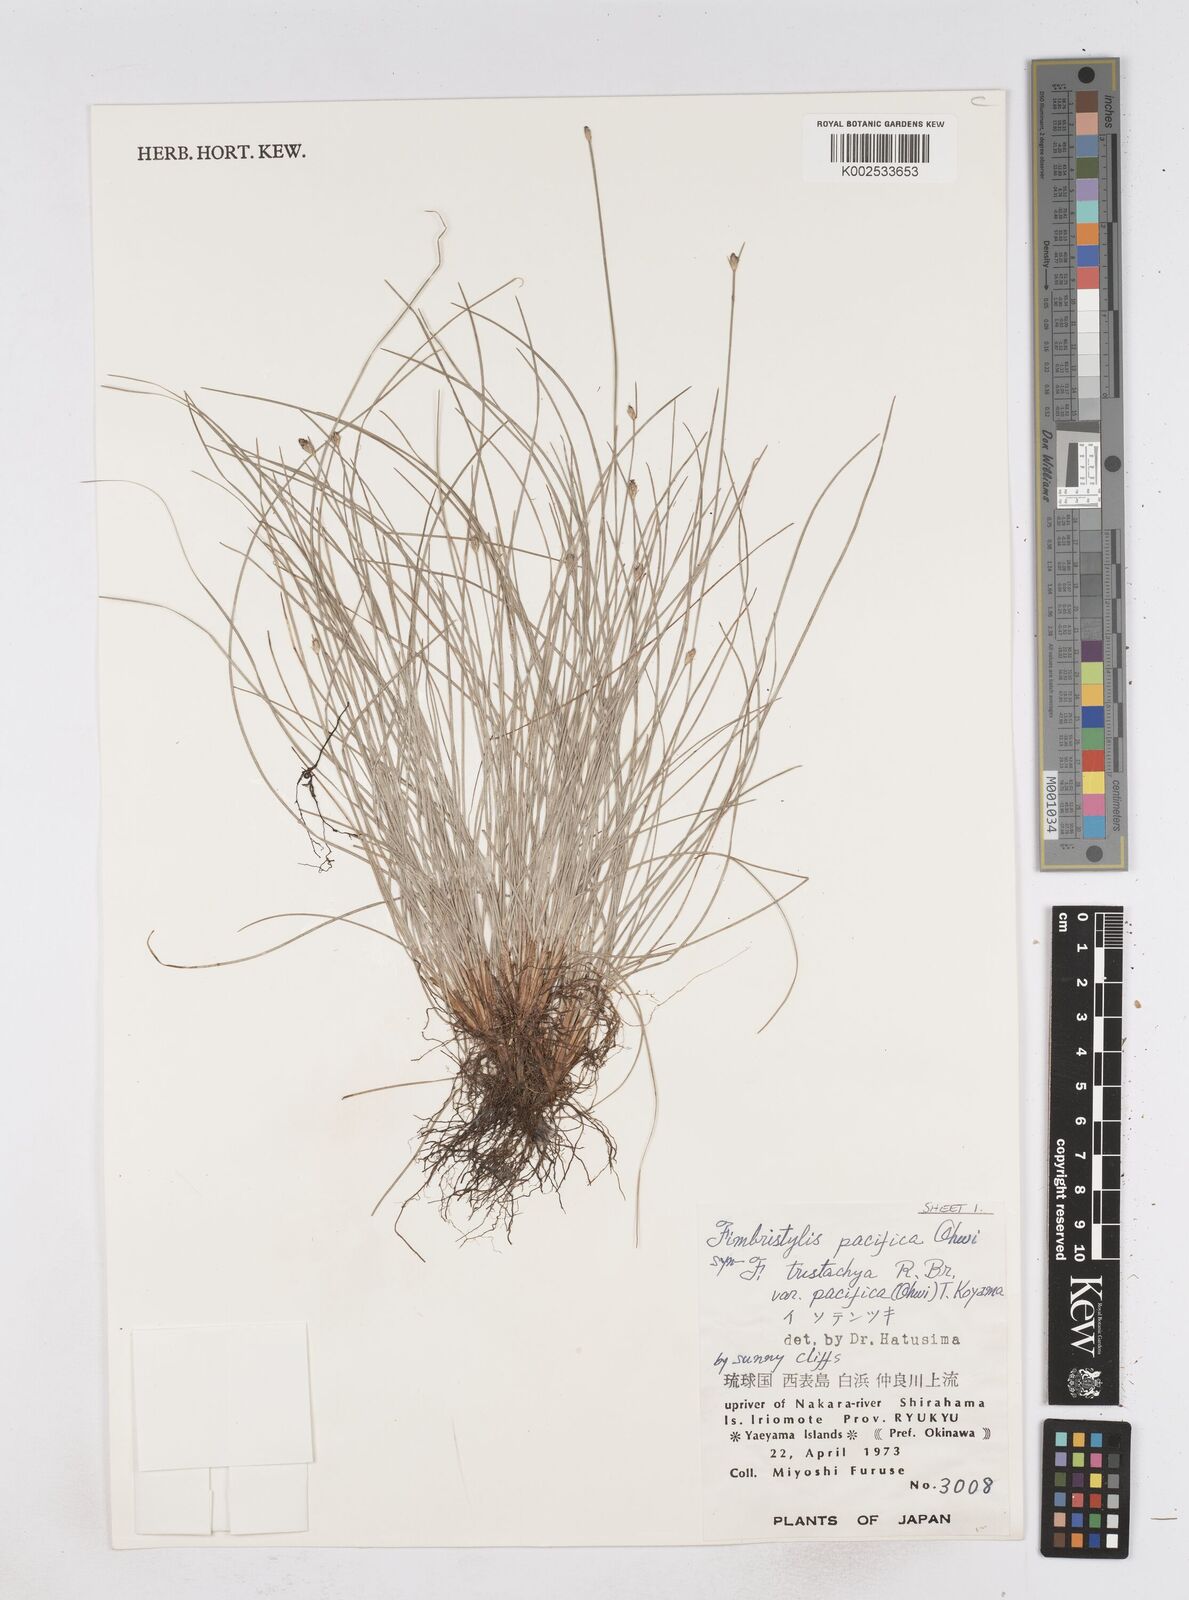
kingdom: Plantae
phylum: Tracheophyta
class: Liliopsida
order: Poales
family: Cyperaceae
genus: Fimbristylis
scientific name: Fimbristylis tristachya
